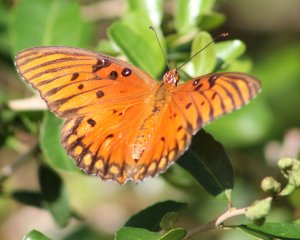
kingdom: Animalia
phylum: Arthropoda
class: Insecta
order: Lepidoptera
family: Nymphalidae
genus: Dione
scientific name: Dione vanillae
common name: Gulf Fritillary
